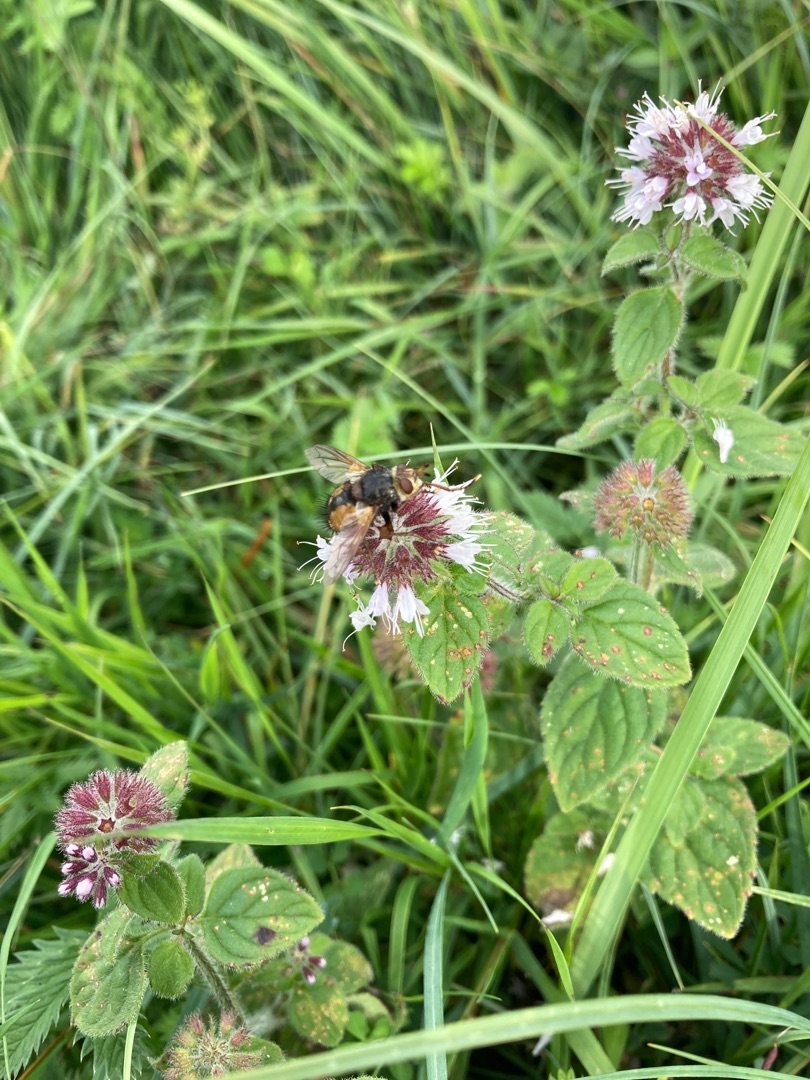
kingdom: Animalia
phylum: Arthropoda
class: Insecta
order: Diptera
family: Tachinidae
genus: Tachina
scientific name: Tachina fera
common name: Mellemfluen oskar
